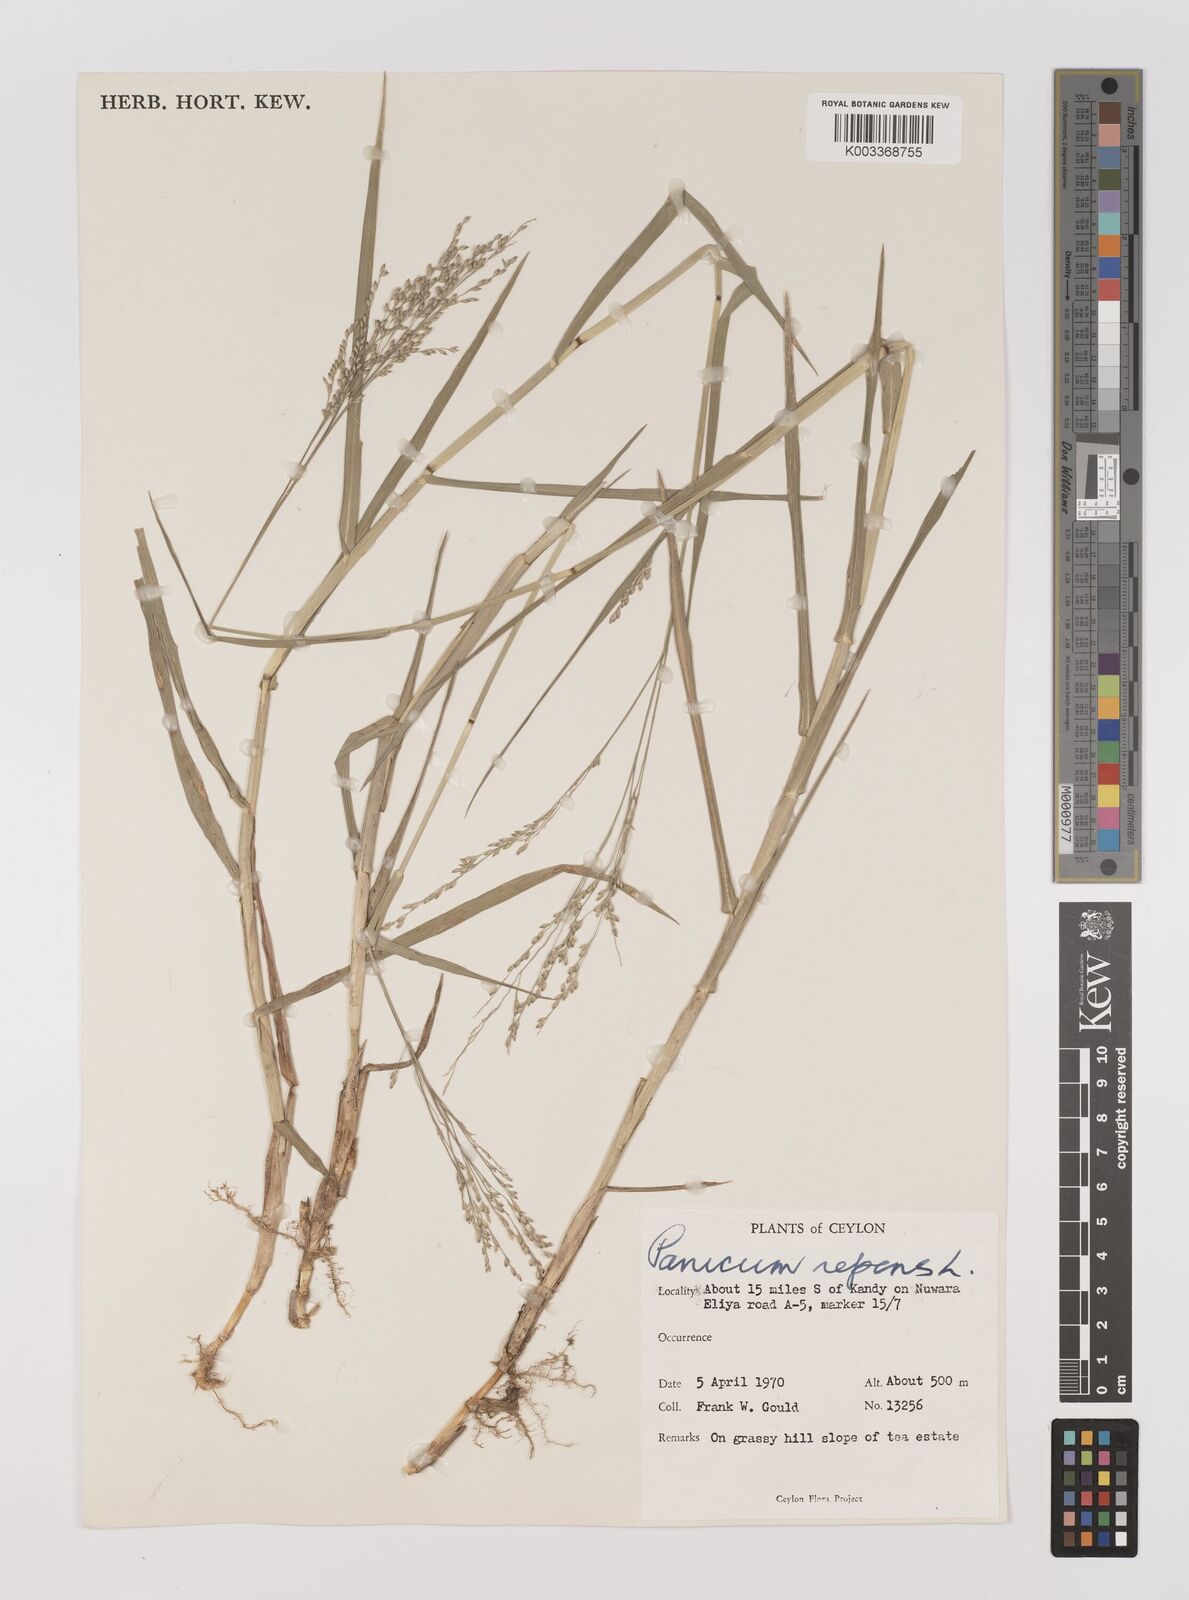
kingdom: Plantae
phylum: Tracheophyta
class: Liliopsida
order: Poales
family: Poaceae
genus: Panicum
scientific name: Panicum repens
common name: Torpedo grass
